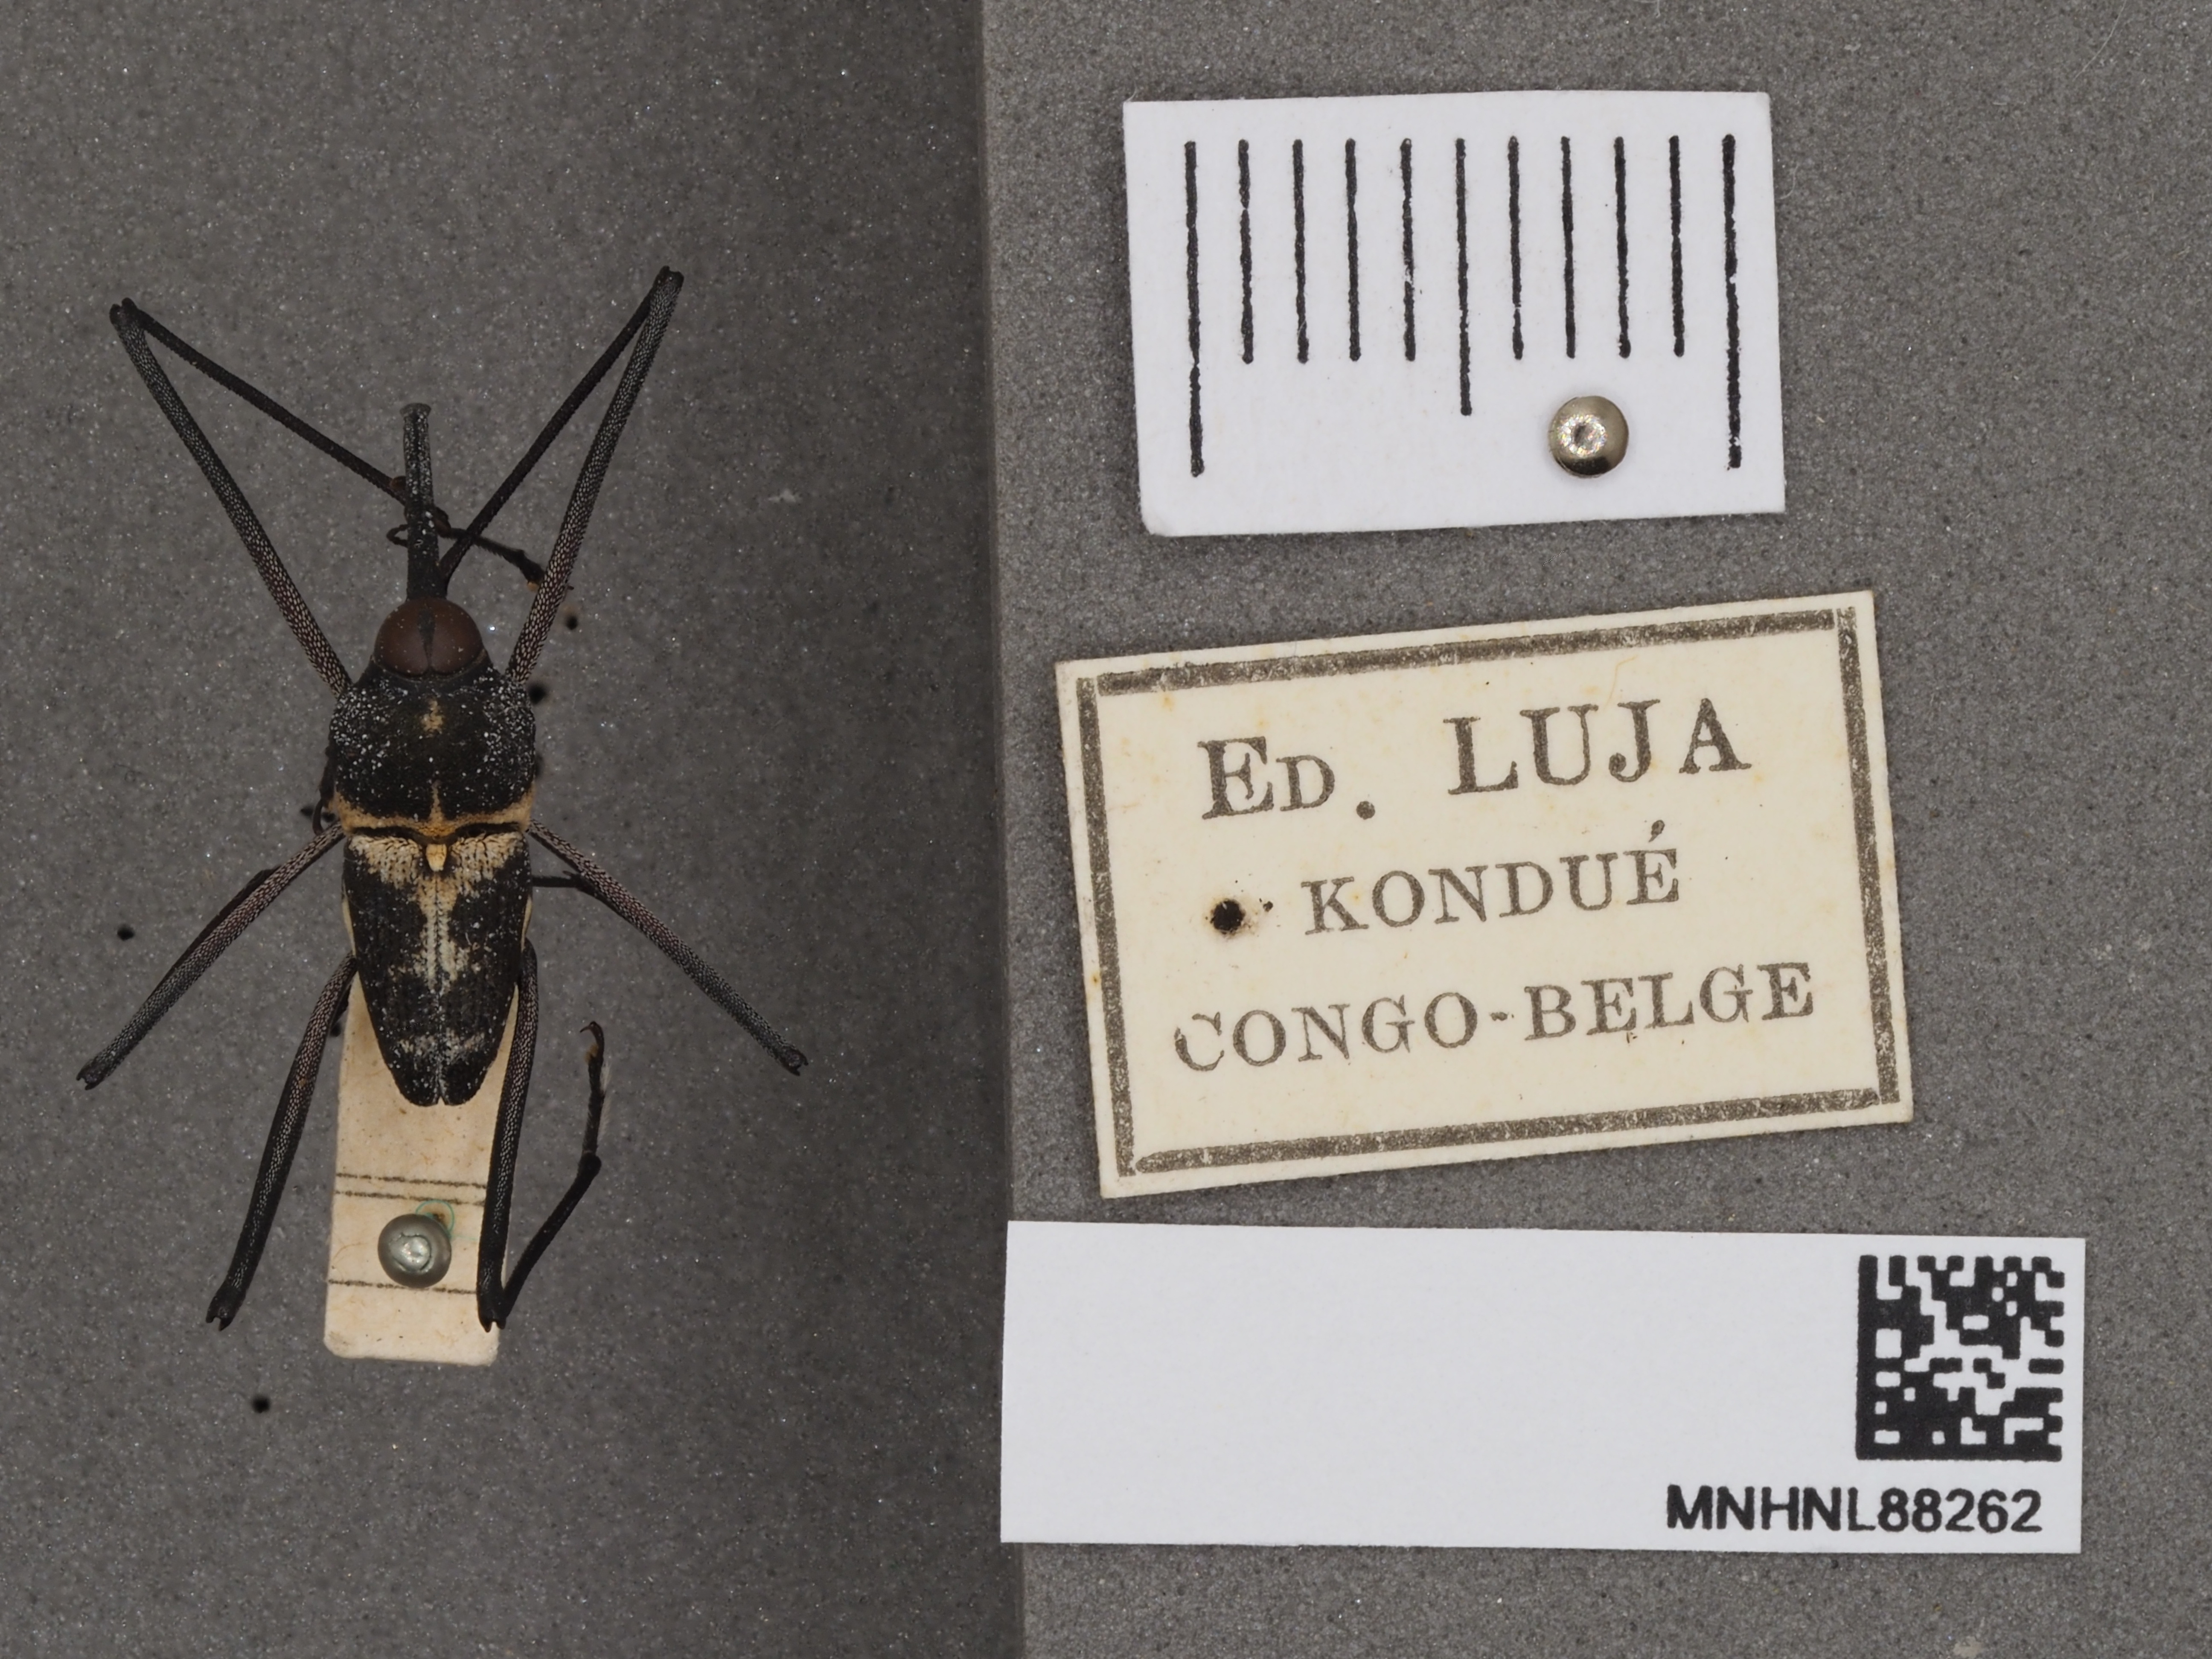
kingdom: Animalia
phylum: Arthropoda
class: Insecta
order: Coleoptera
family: Curculionidae
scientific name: Curculionidae
